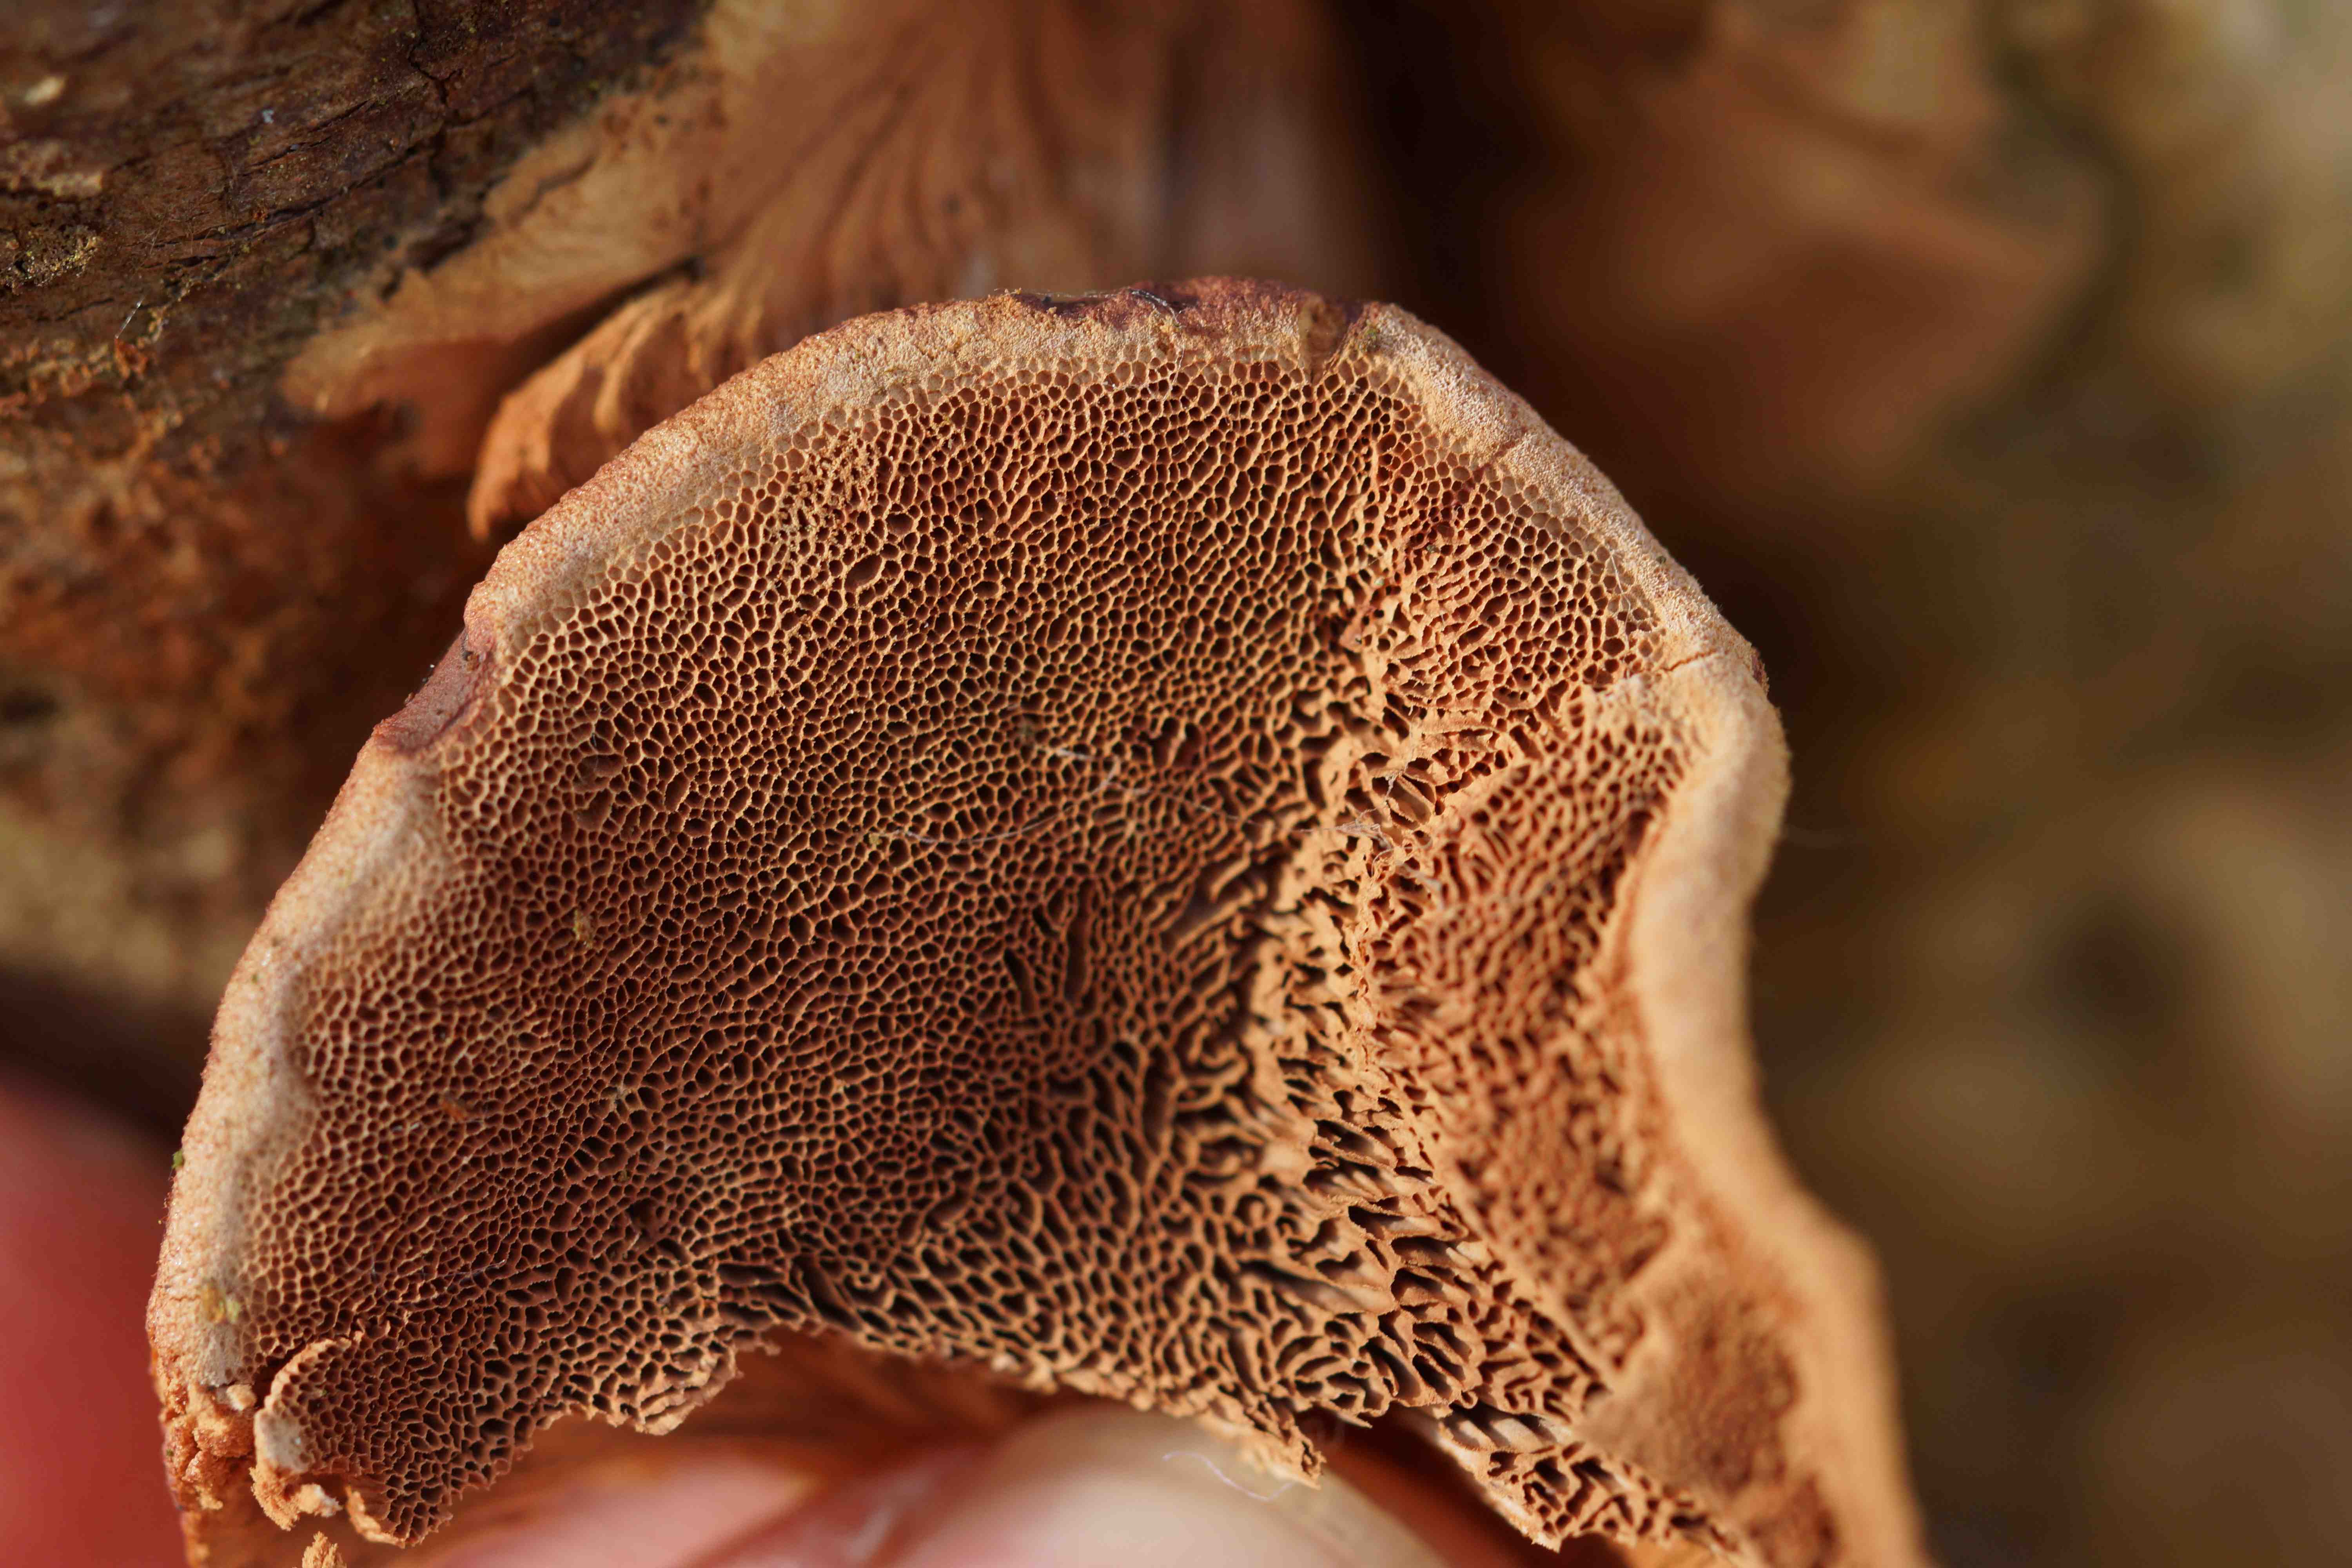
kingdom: Fungi
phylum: Basidiomycota
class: Agaricomycetes
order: Polyporales
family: Phanerochaetaceae
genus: Hapalopilus
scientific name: Hapalopilus rutilans
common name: rødlig okkerporesvamp
